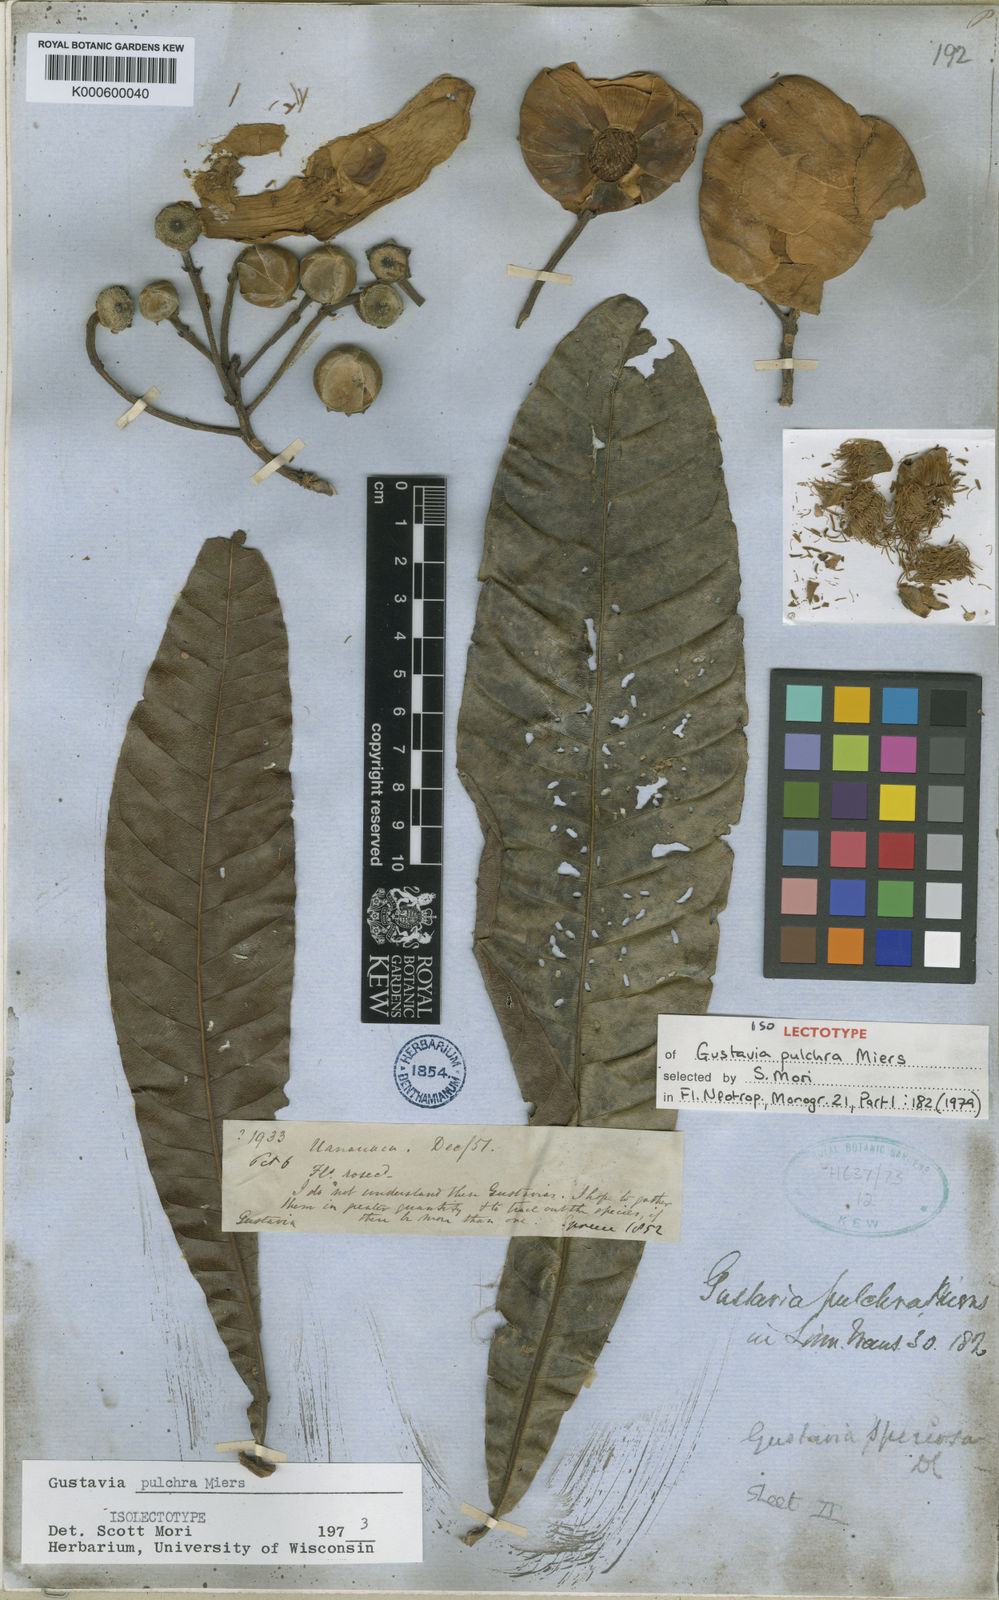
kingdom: Plantae
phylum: Tracheophyta
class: Magnoliopsida
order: Ericales
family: Lecythidaceae
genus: Gustavia
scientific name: Gustavia pulchra
